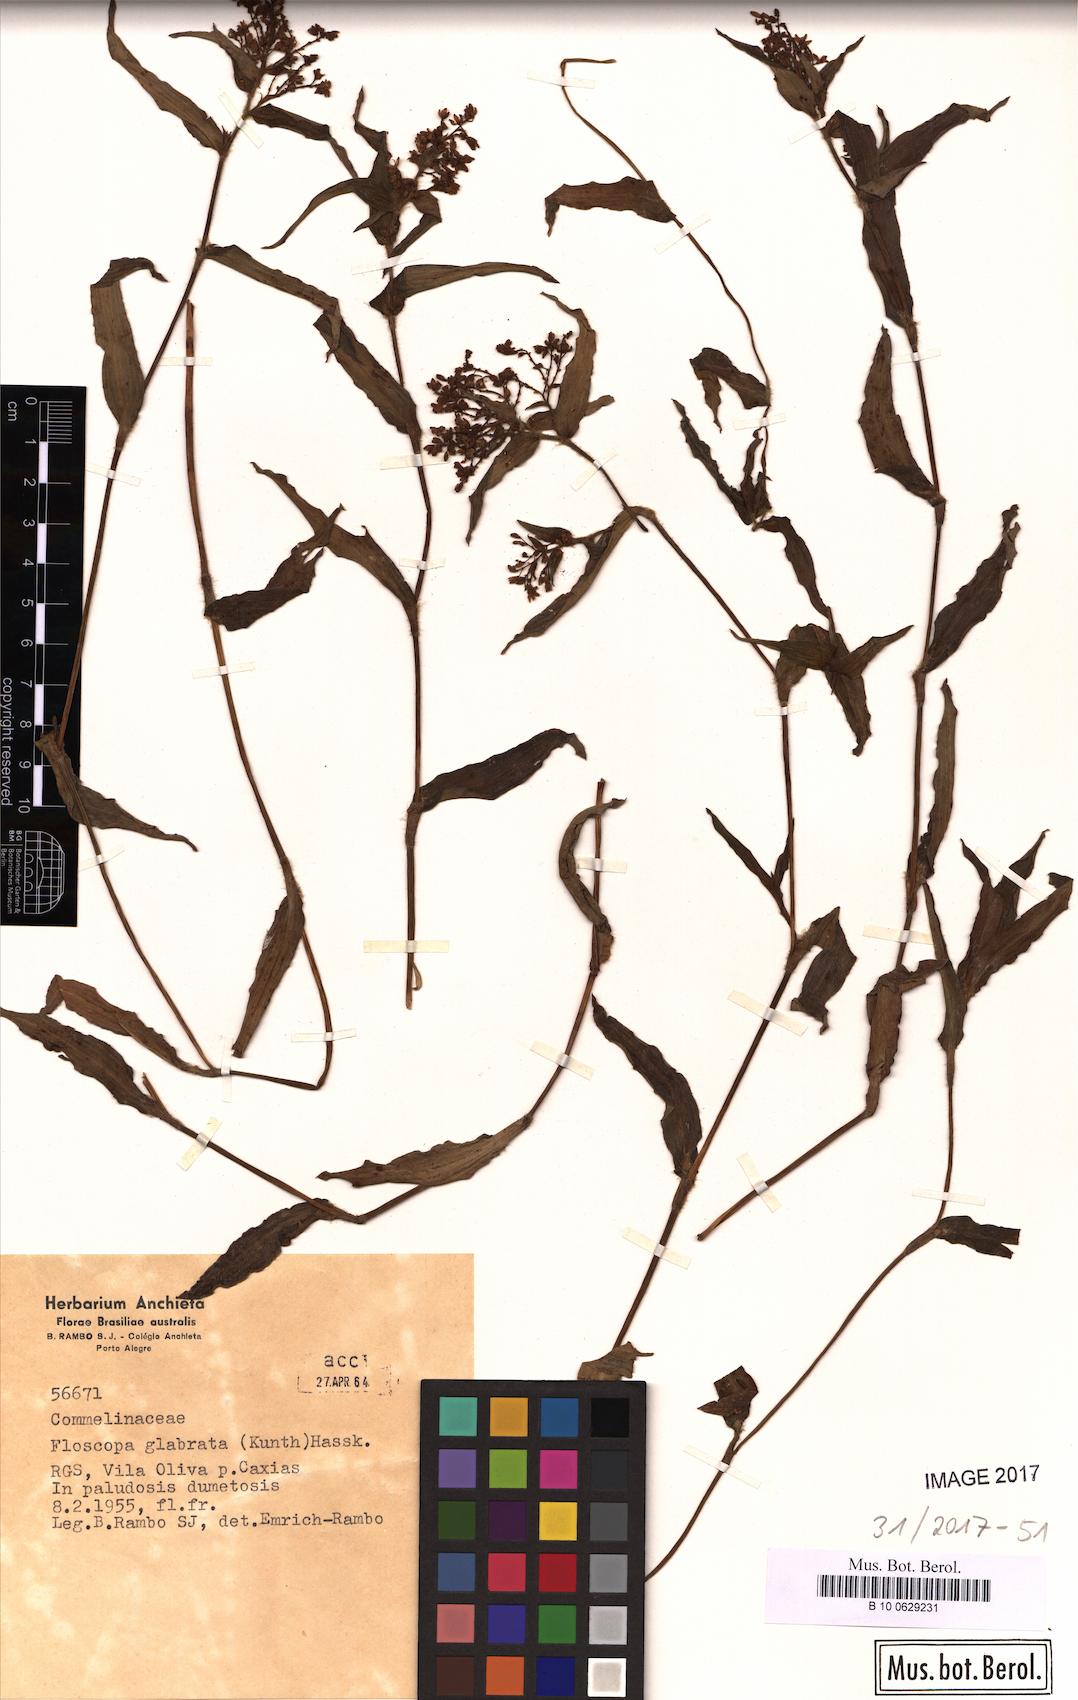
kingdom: Plantae
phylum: Tracheophyta
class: Liliopsida
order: Commelinales
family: Commelinaceae
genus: Floscopa
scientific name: Floscopa glabrata
